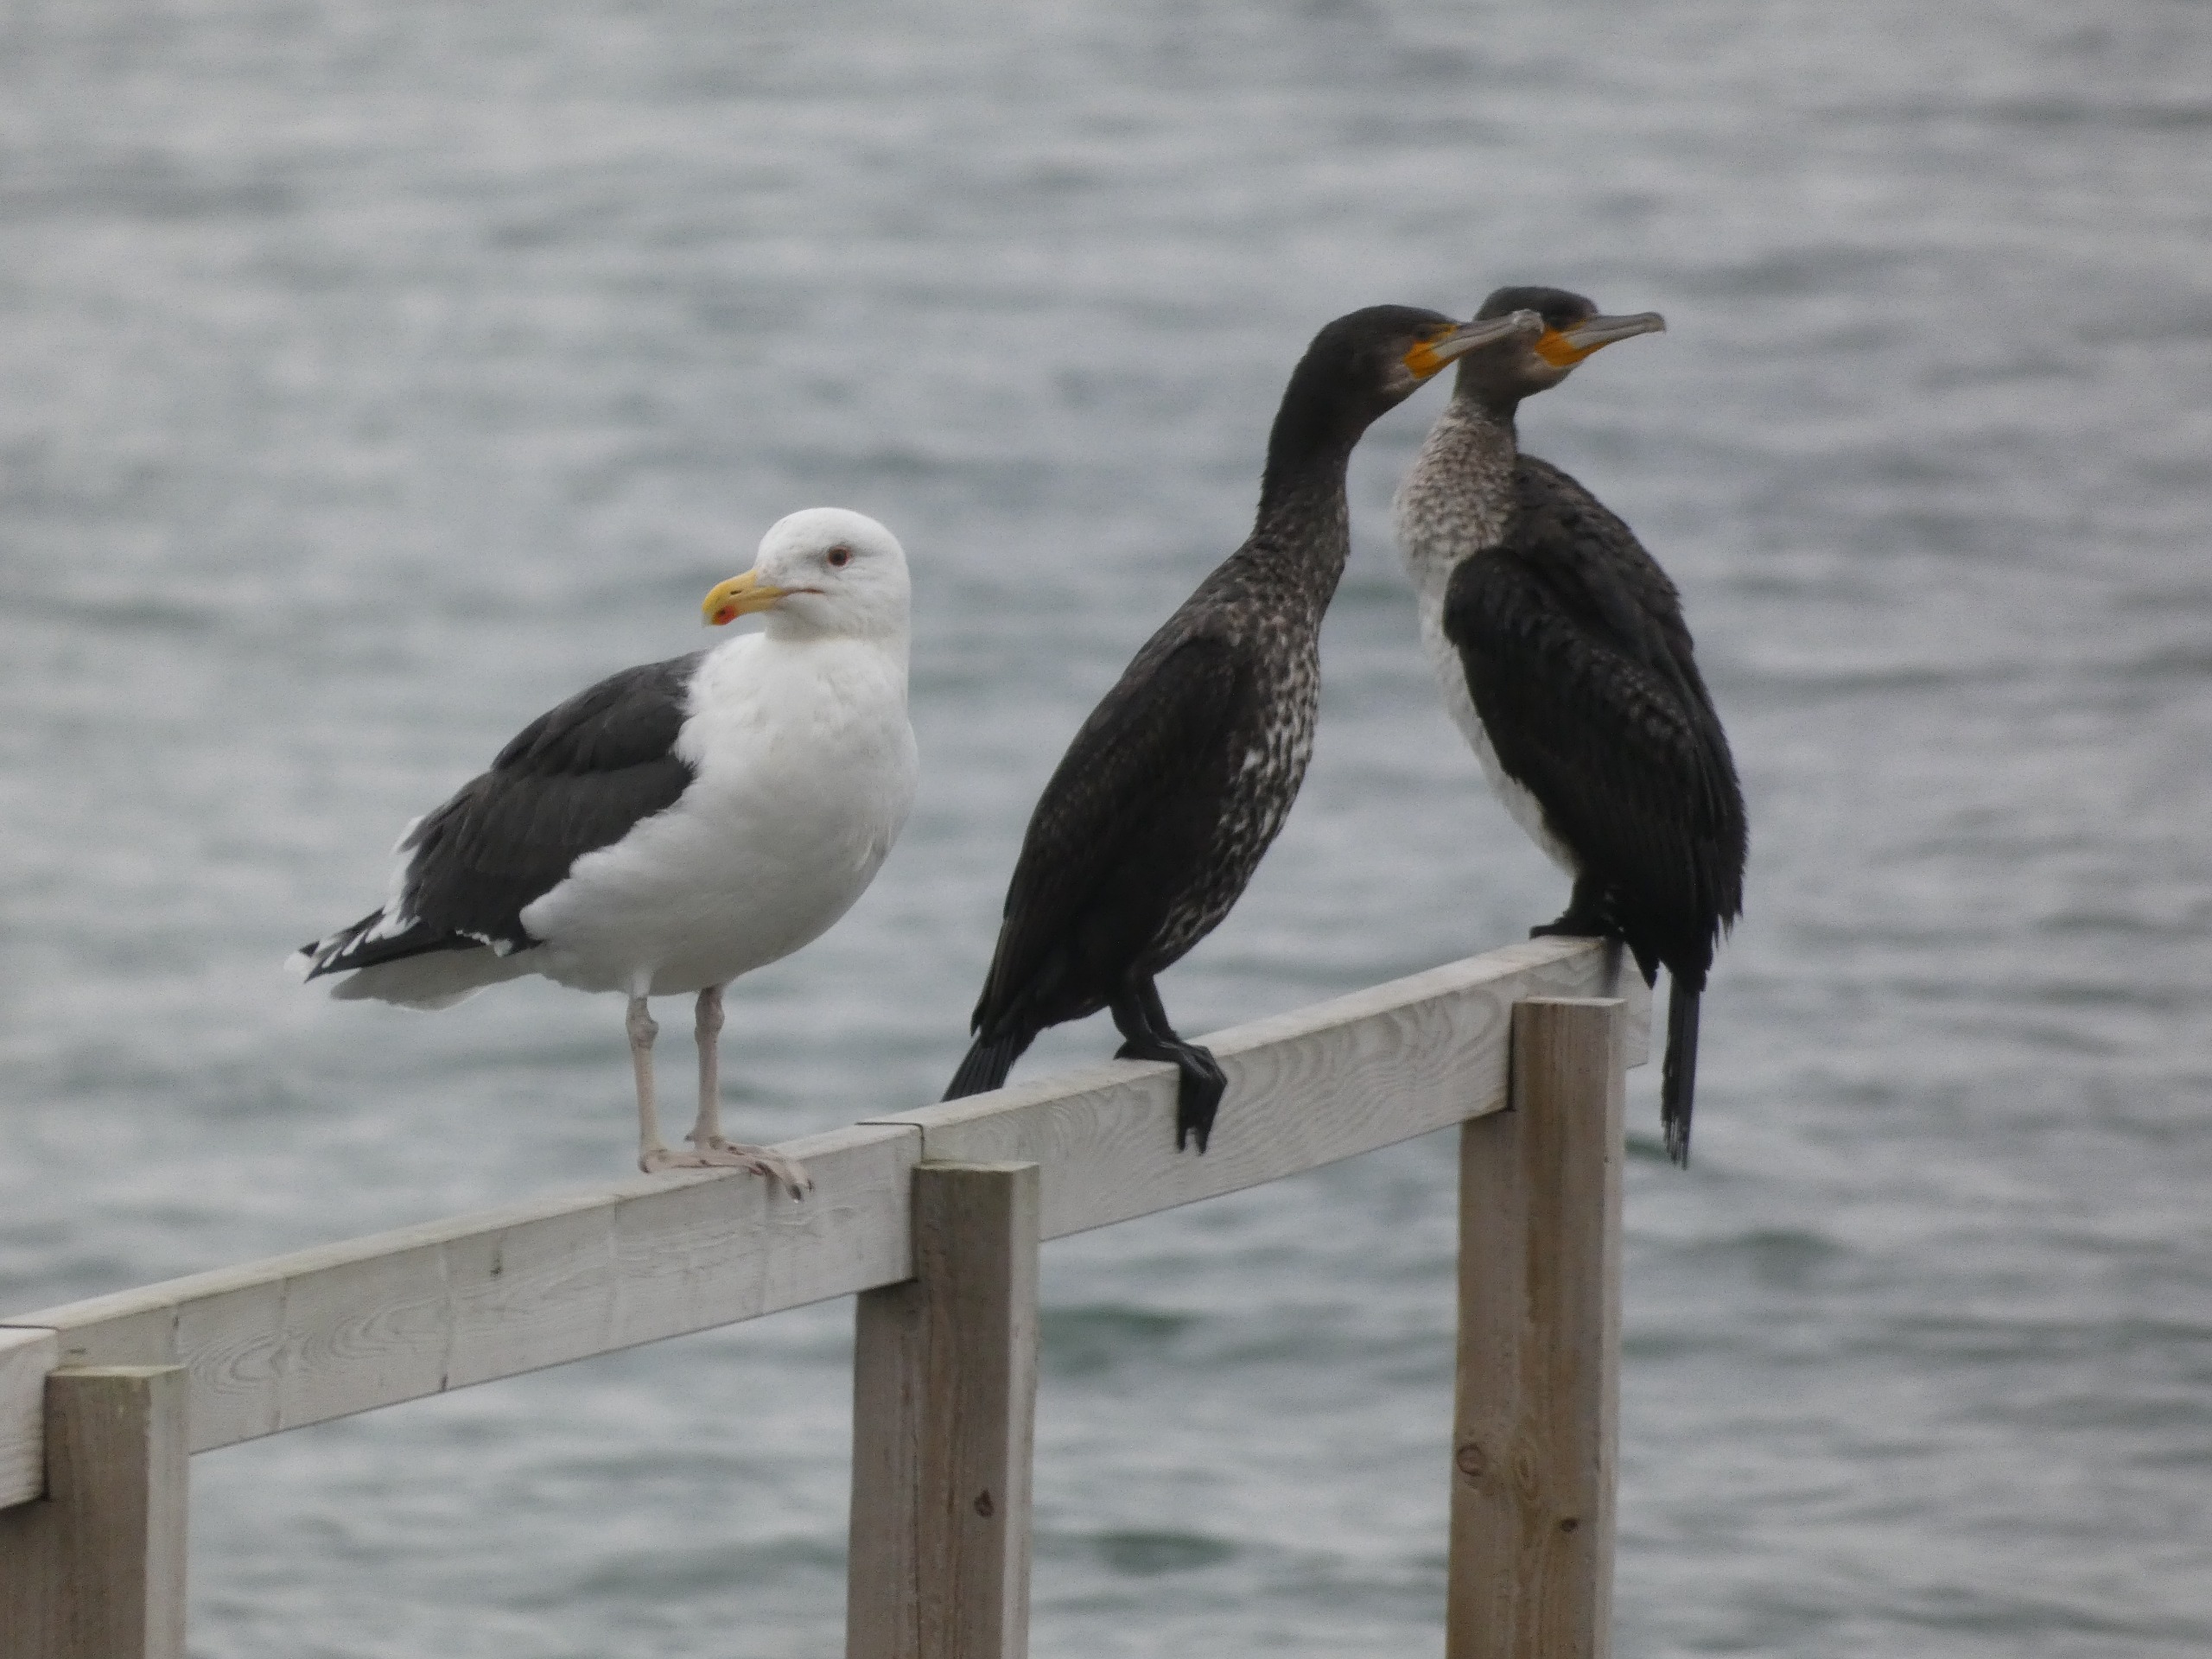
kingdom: Animalia
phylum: Chordata
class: Aves
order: Suliformes
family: Phalacrocoracidae
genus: Phalacrocorax
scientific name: Phalacrocorax carbo
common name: Skarv
